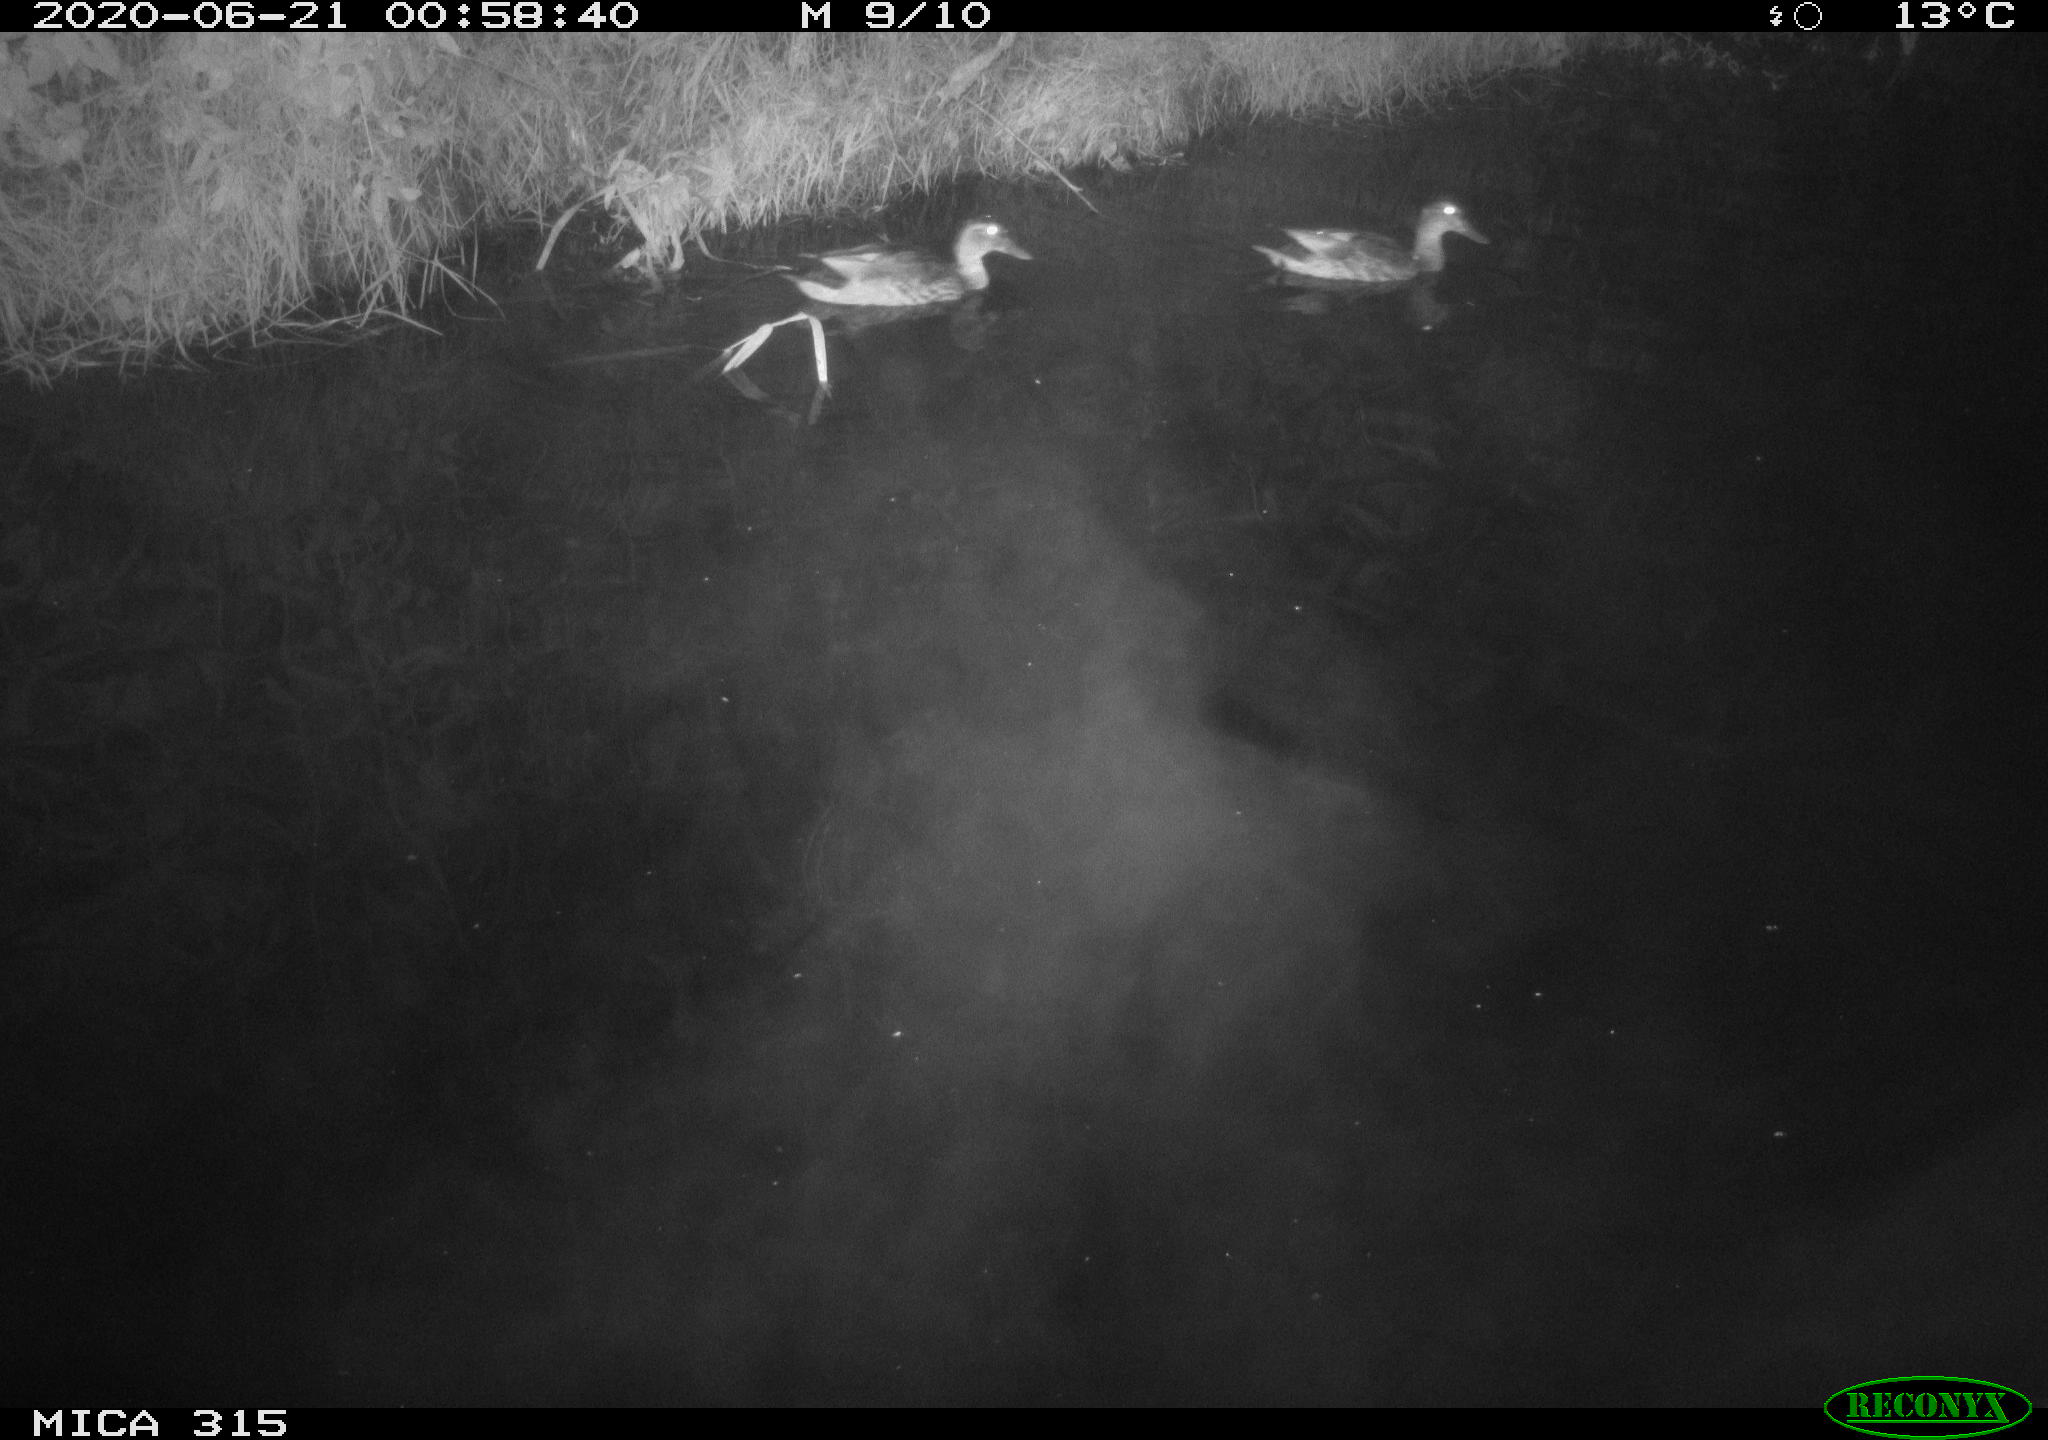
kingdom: Animalia
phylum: Chordata
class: Aves
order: Anseriformes
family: Anatidae
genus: Anas
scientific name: Anas platyrhynchos
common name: Mallard
